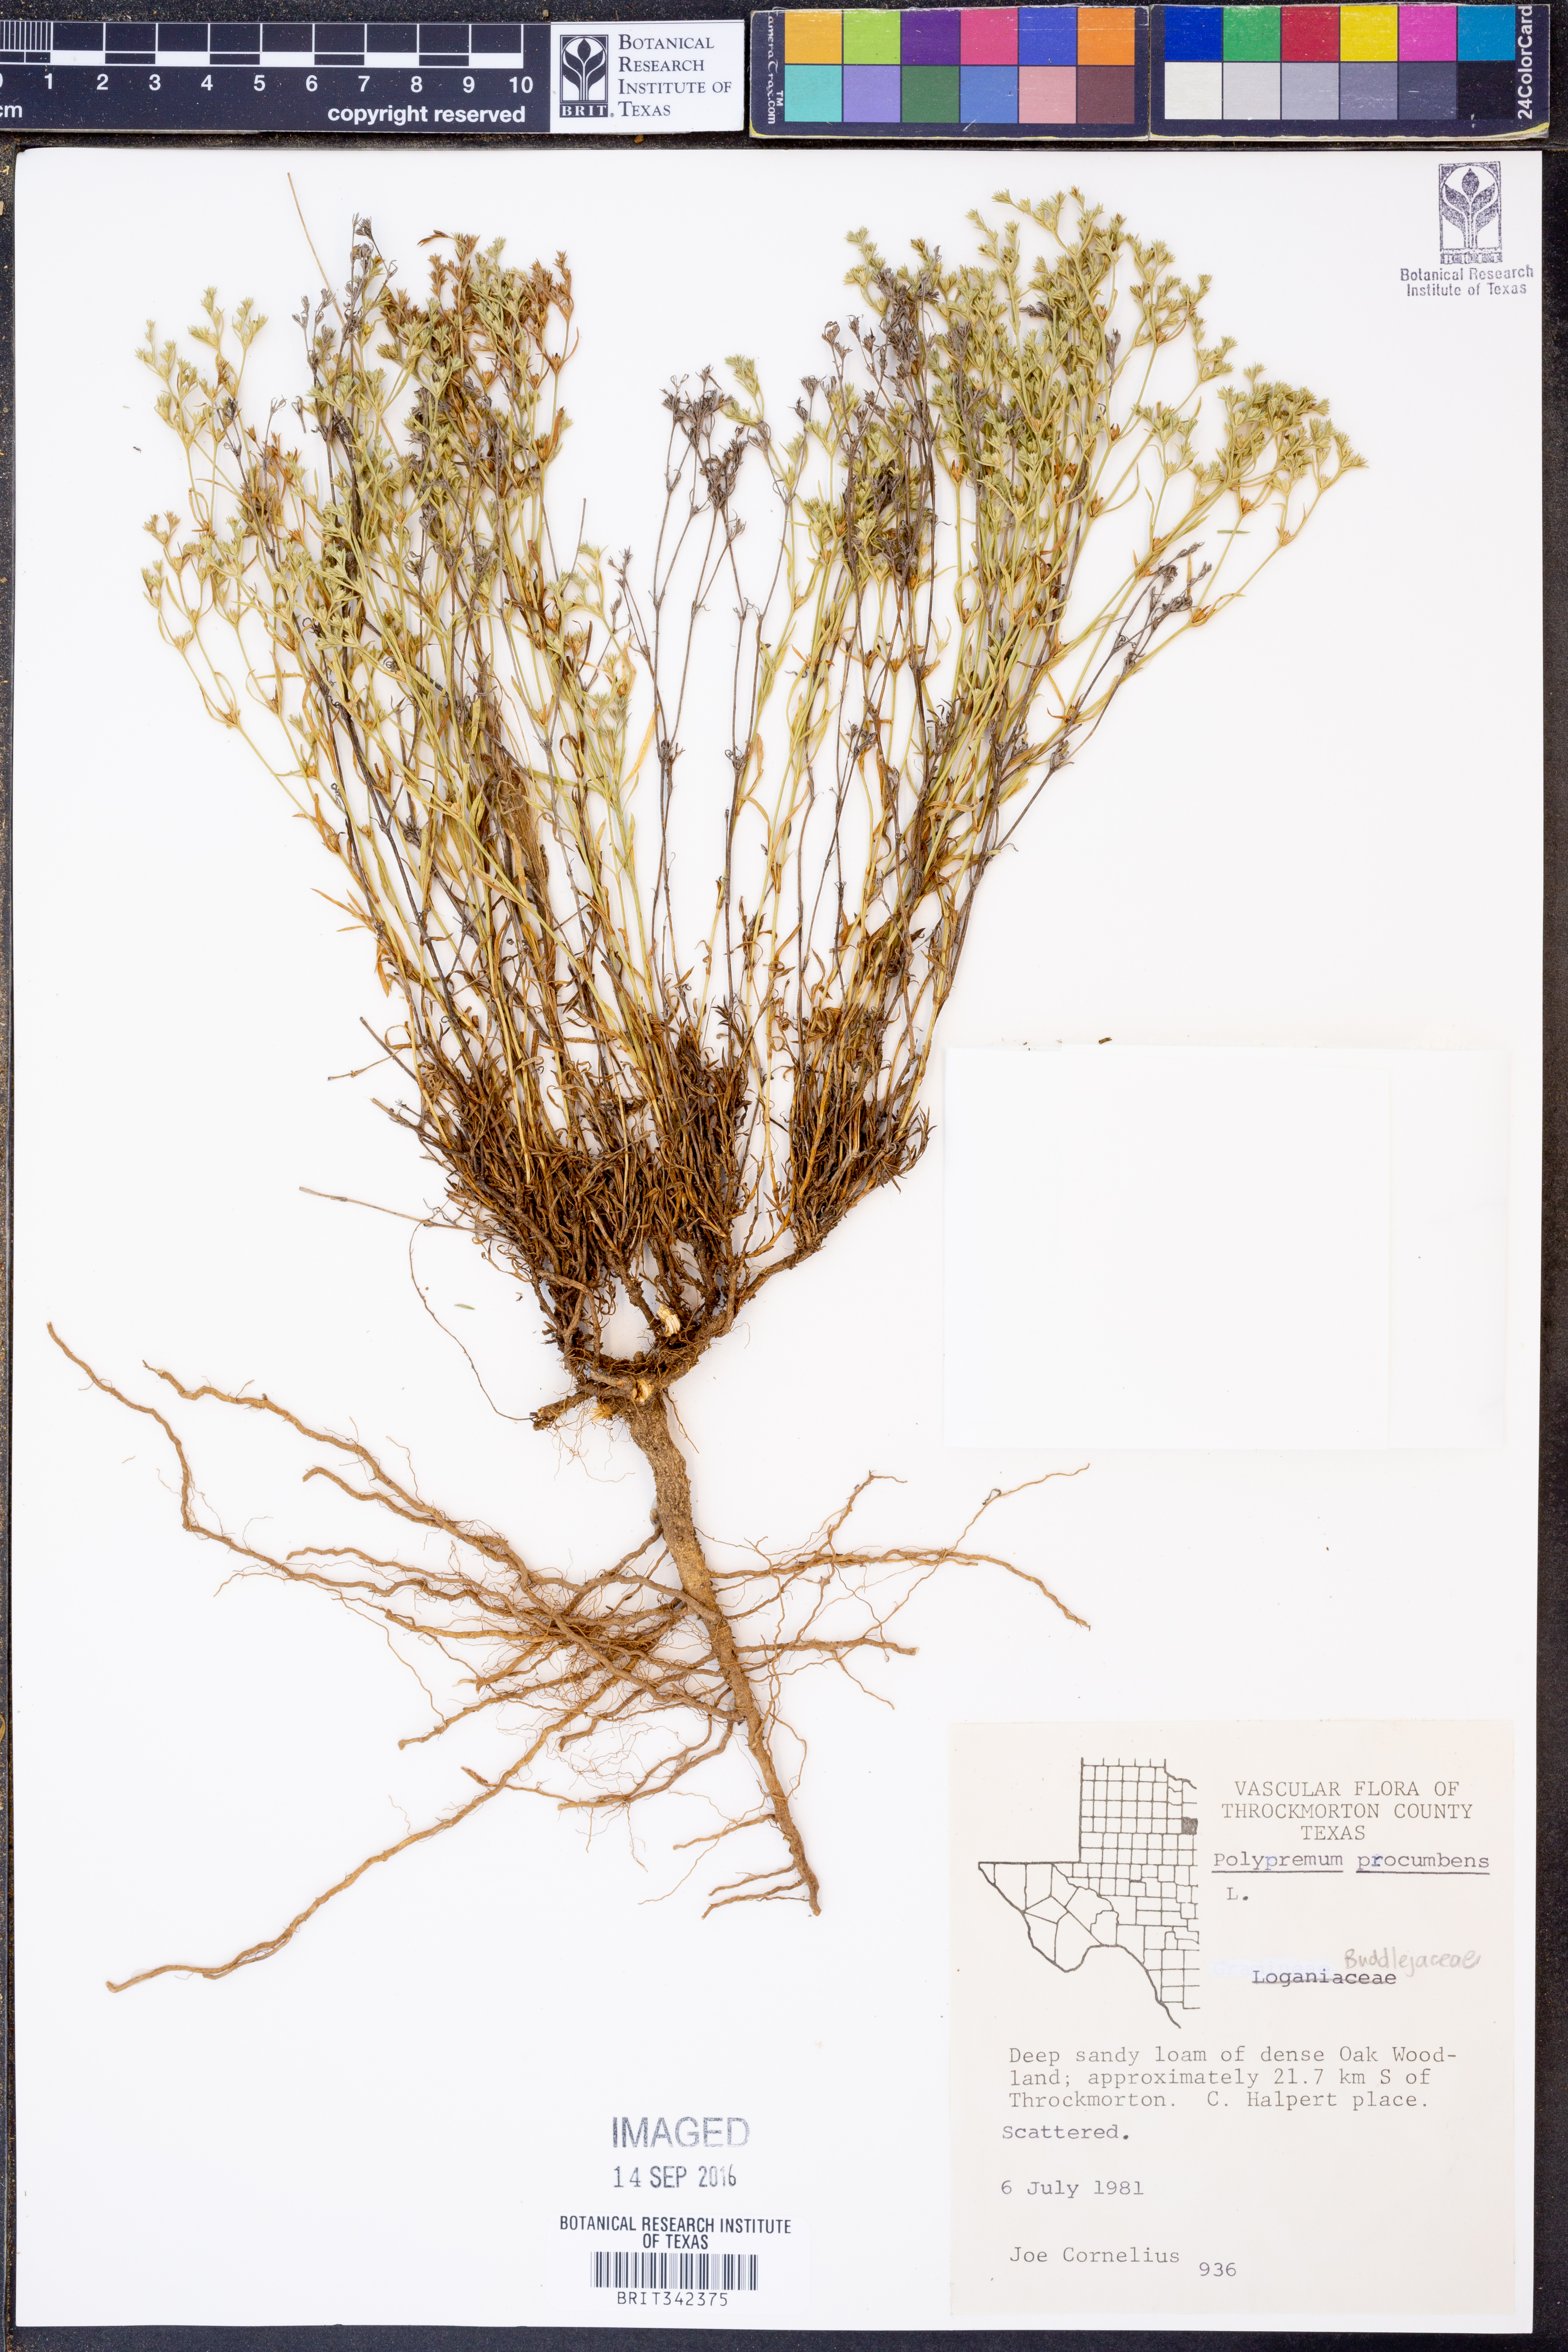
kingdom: Plantae
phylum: Tracheophyta
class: Magnoliopsida
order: Lamiales
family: Tetrachondraceae
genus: Polypremum
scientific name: Polypremum procumbens
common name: Juniper-leaf
